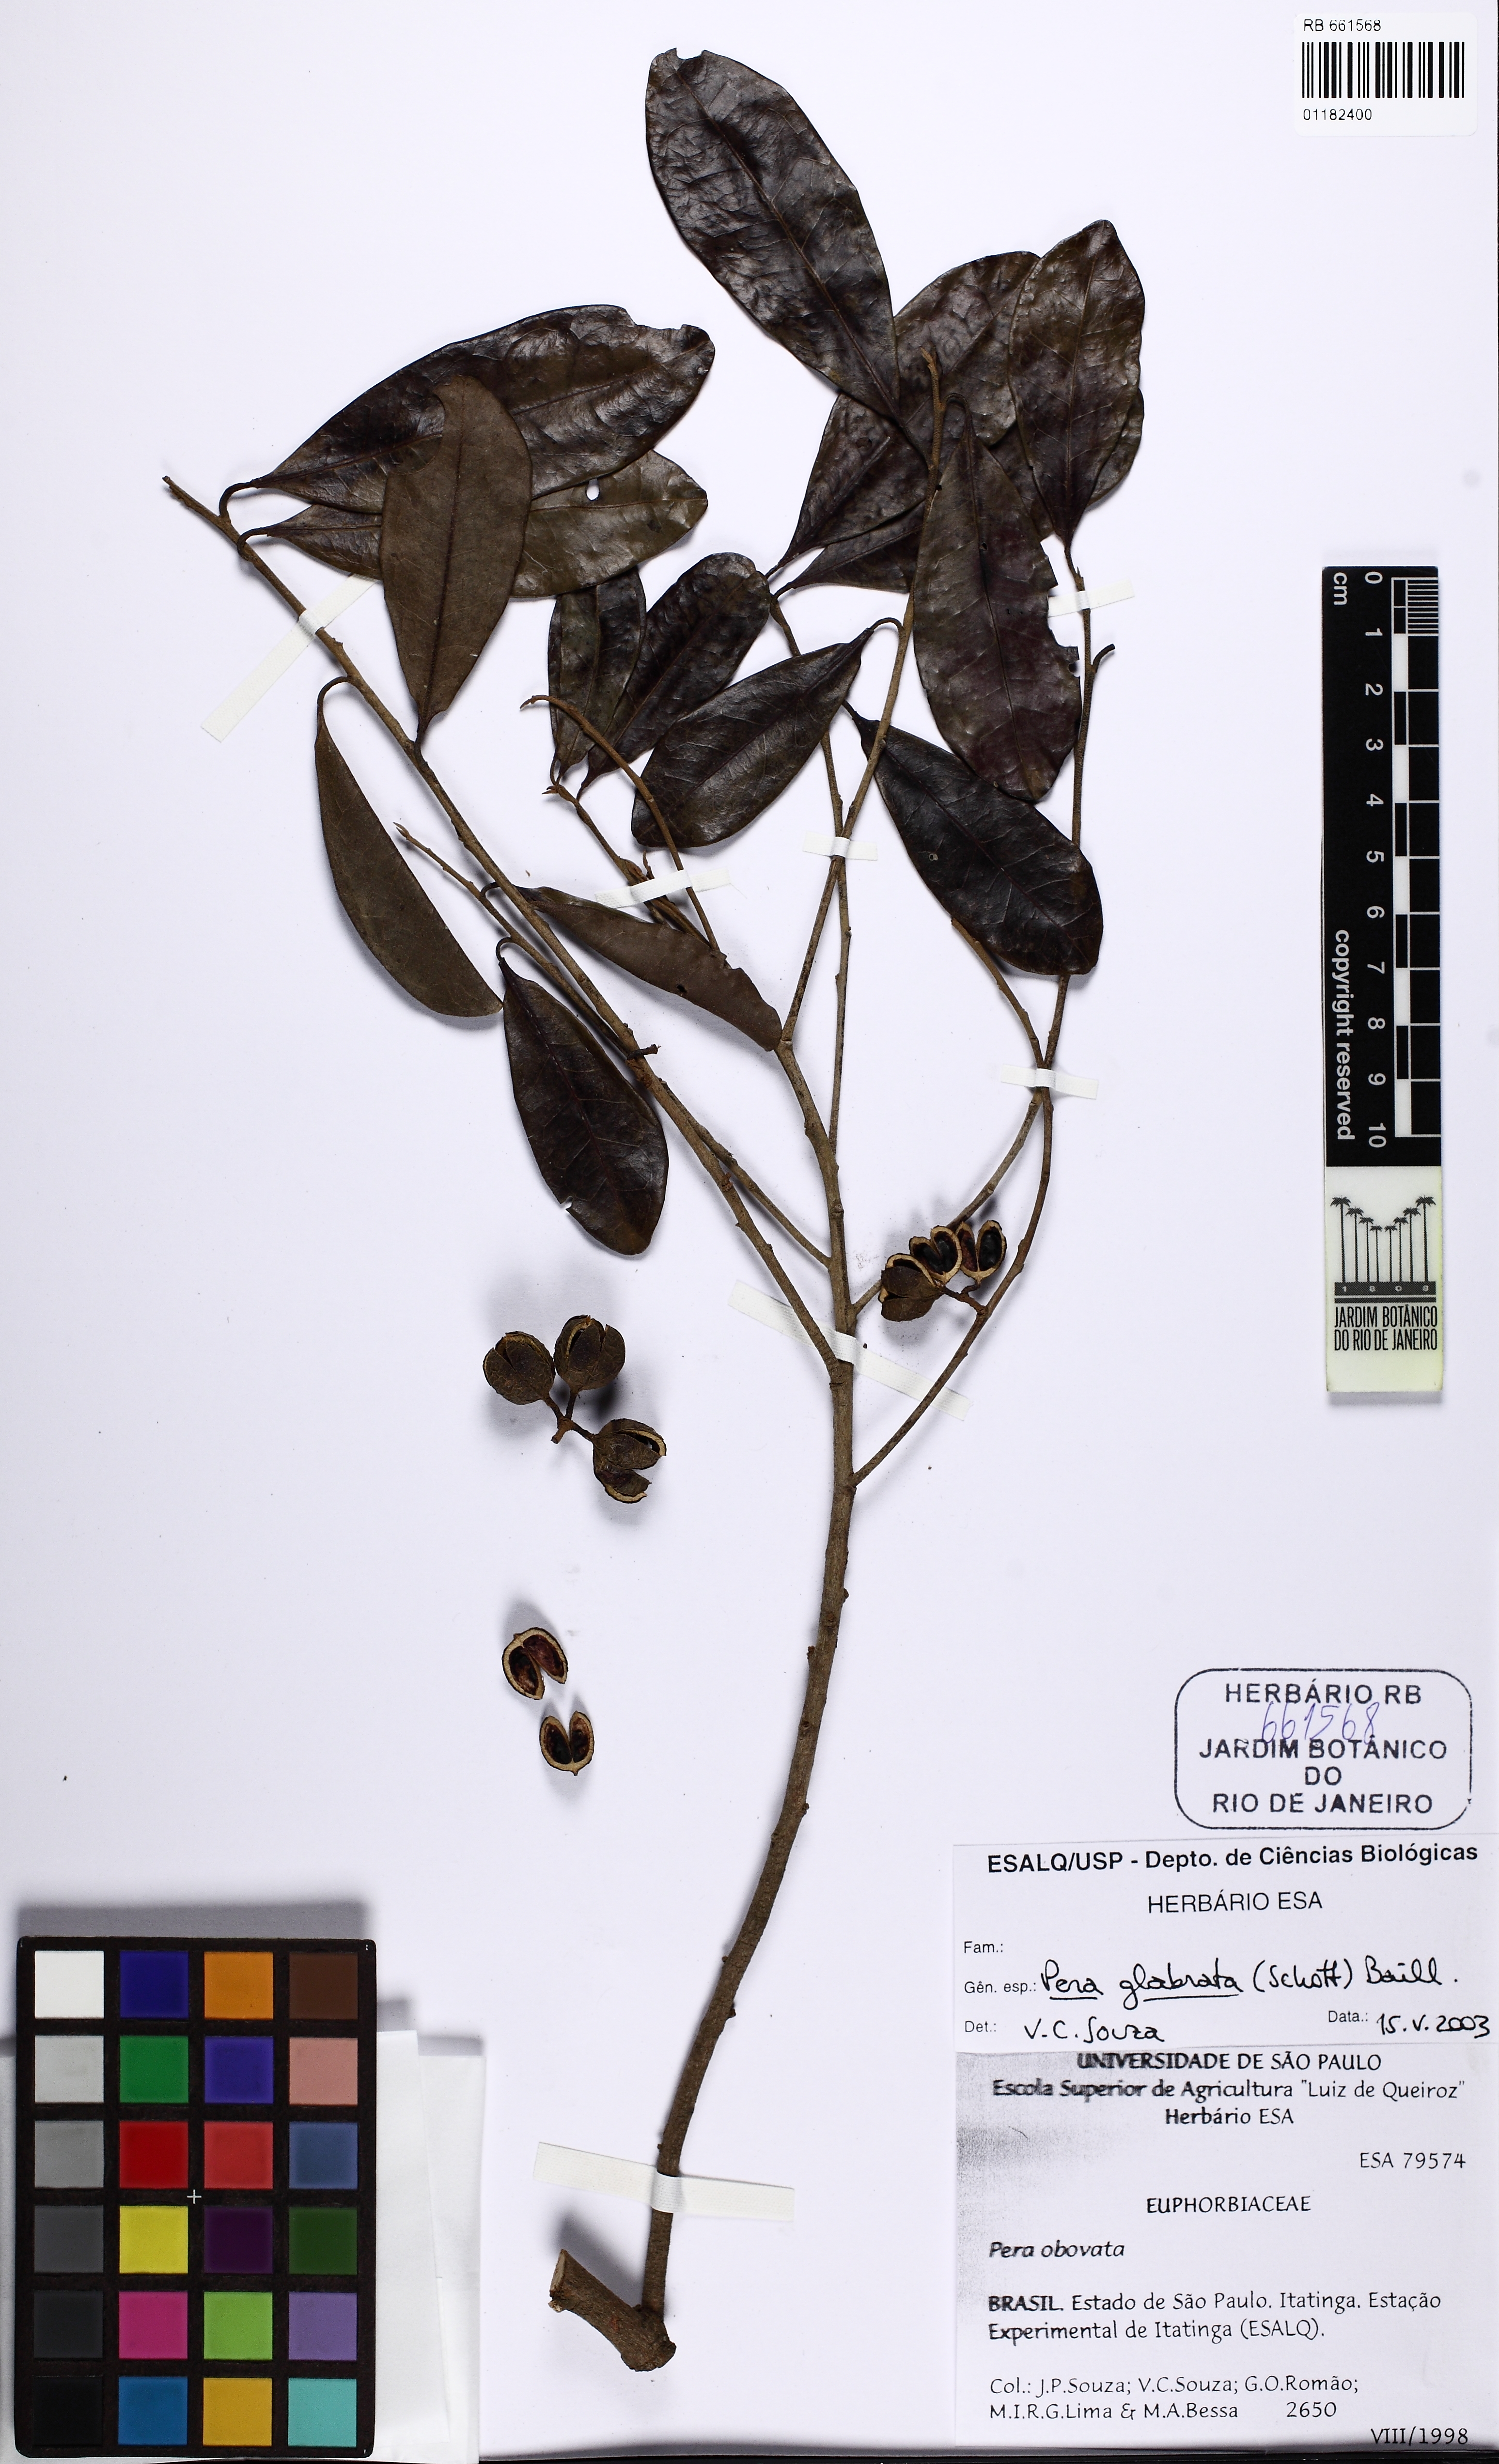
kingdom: Plantae
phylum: Tracheophyta
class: Magnoliopsida
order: Malpighiales
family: Peraceae
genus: Pera
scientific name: Pera glabrata
